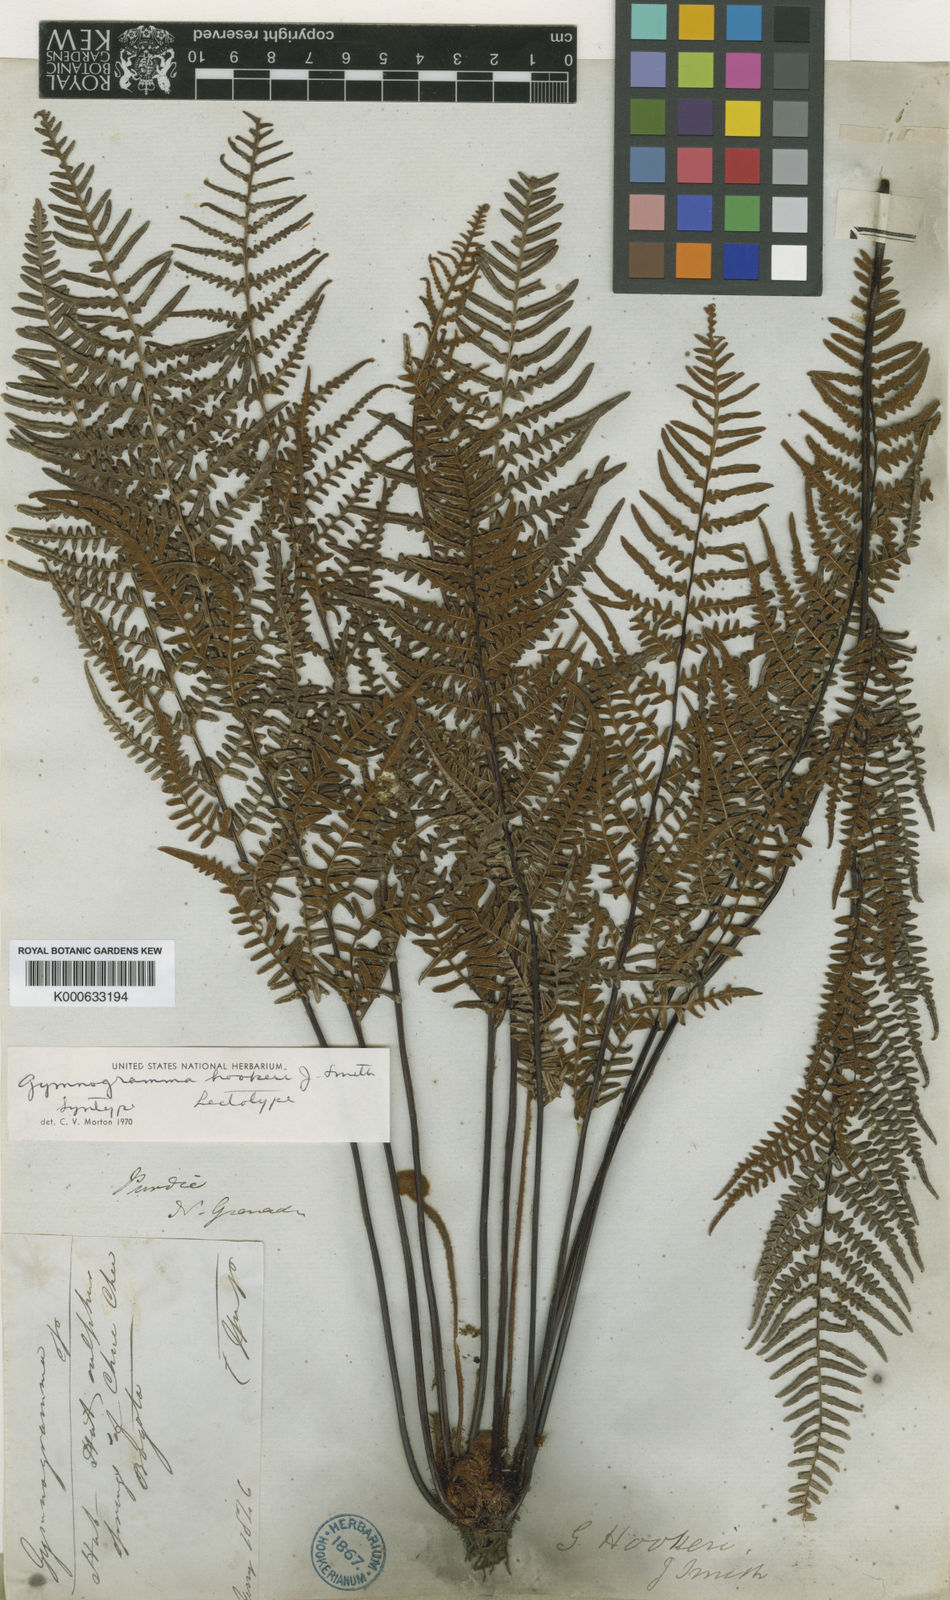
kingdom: Plantae
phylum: Tracheophyta
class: Polypodiopsida
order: Polypodiales
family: Pteridaceae
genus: Pityrogramma
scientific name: Pityrogramma ochracea
